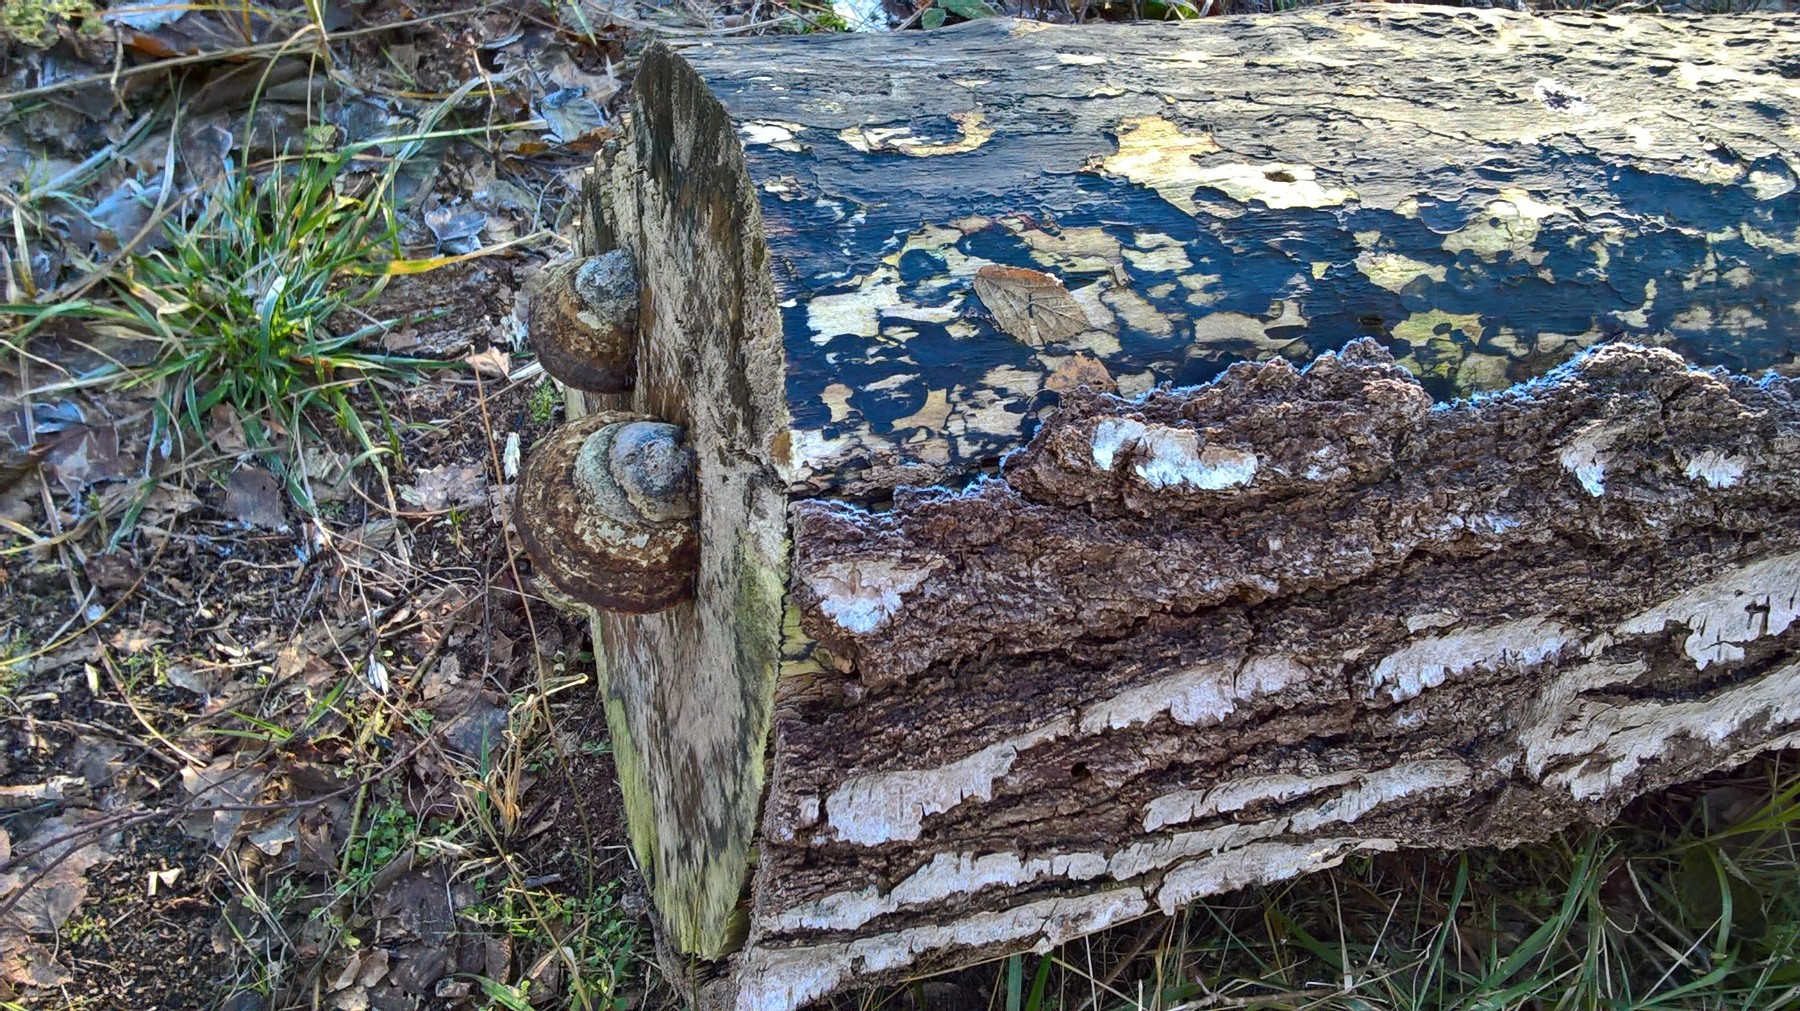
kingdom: Fungi
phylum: Basidiomycota
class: Agaricomycetes
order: Polyporales
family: Polyporaceae
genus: Fomes
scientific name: Fomes fomentarius
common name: tøndersvamp
